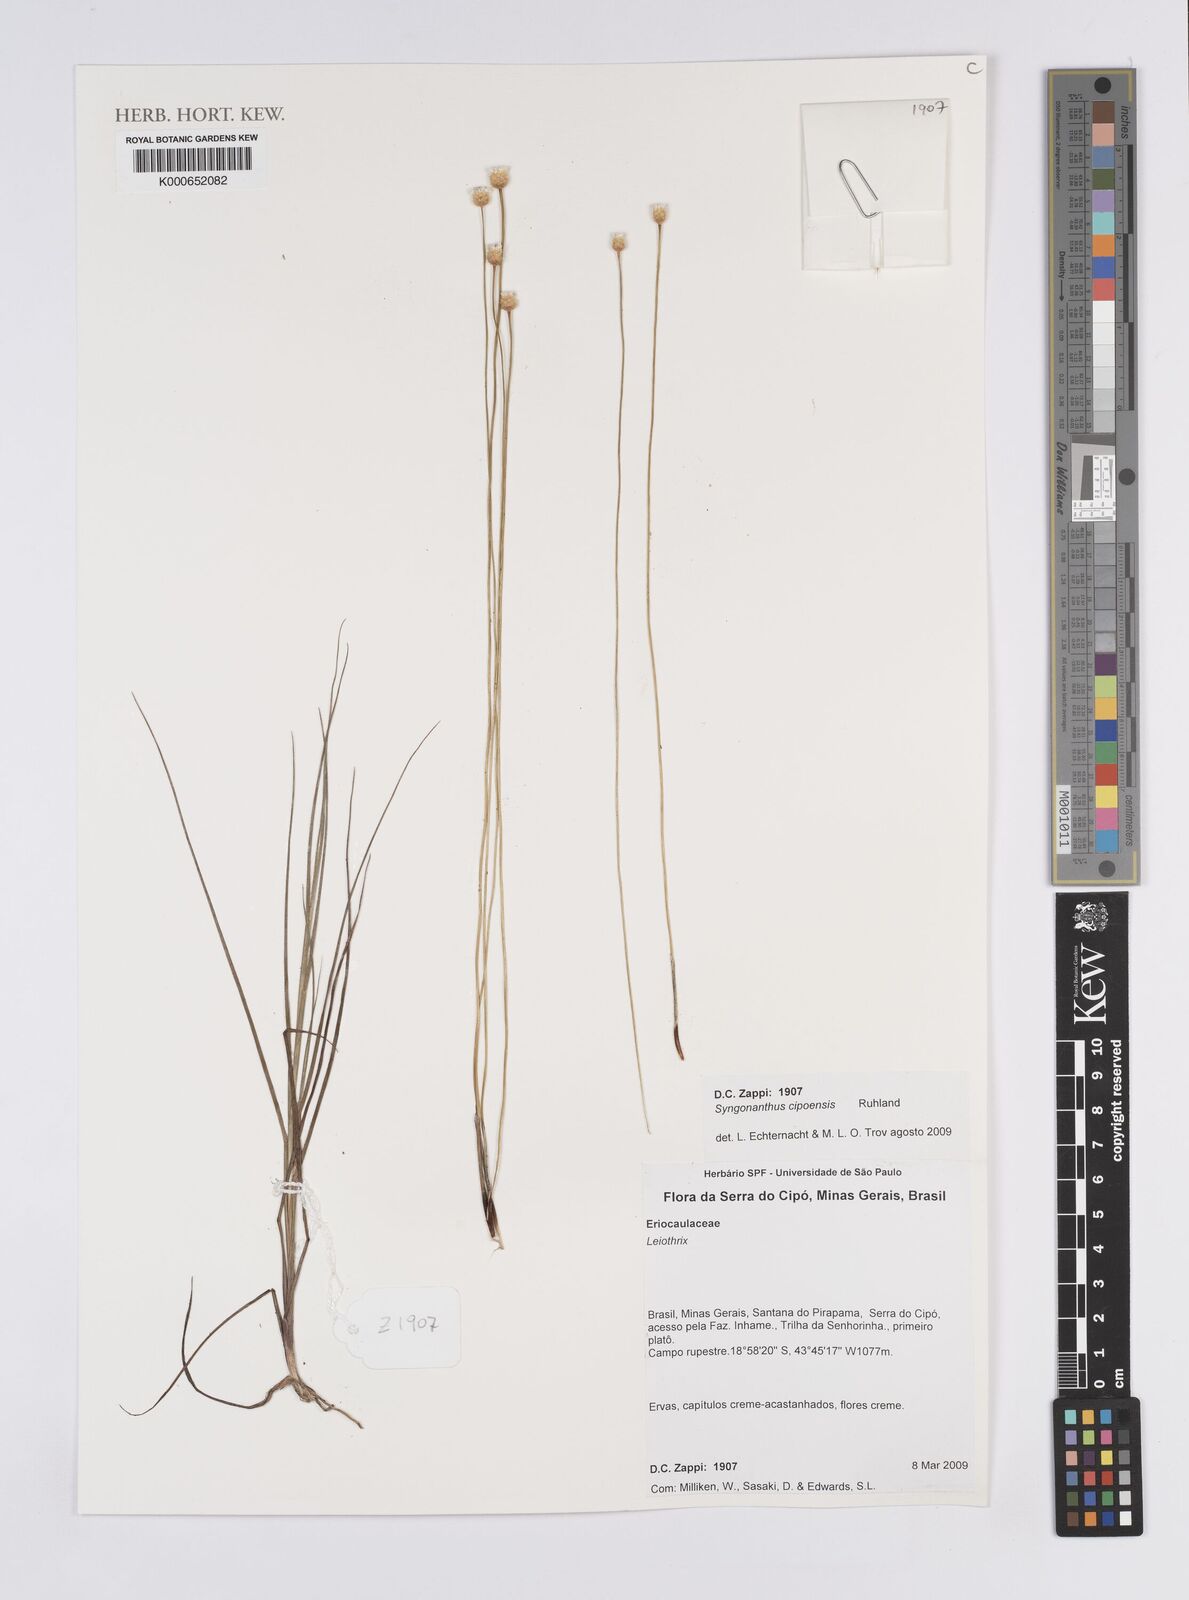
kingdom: Plantae
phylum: Tracheophyta
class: Liliopsida
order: Poales
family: Eriocaulaceae
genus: Comanthera
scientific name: Comanthera cipoensis
